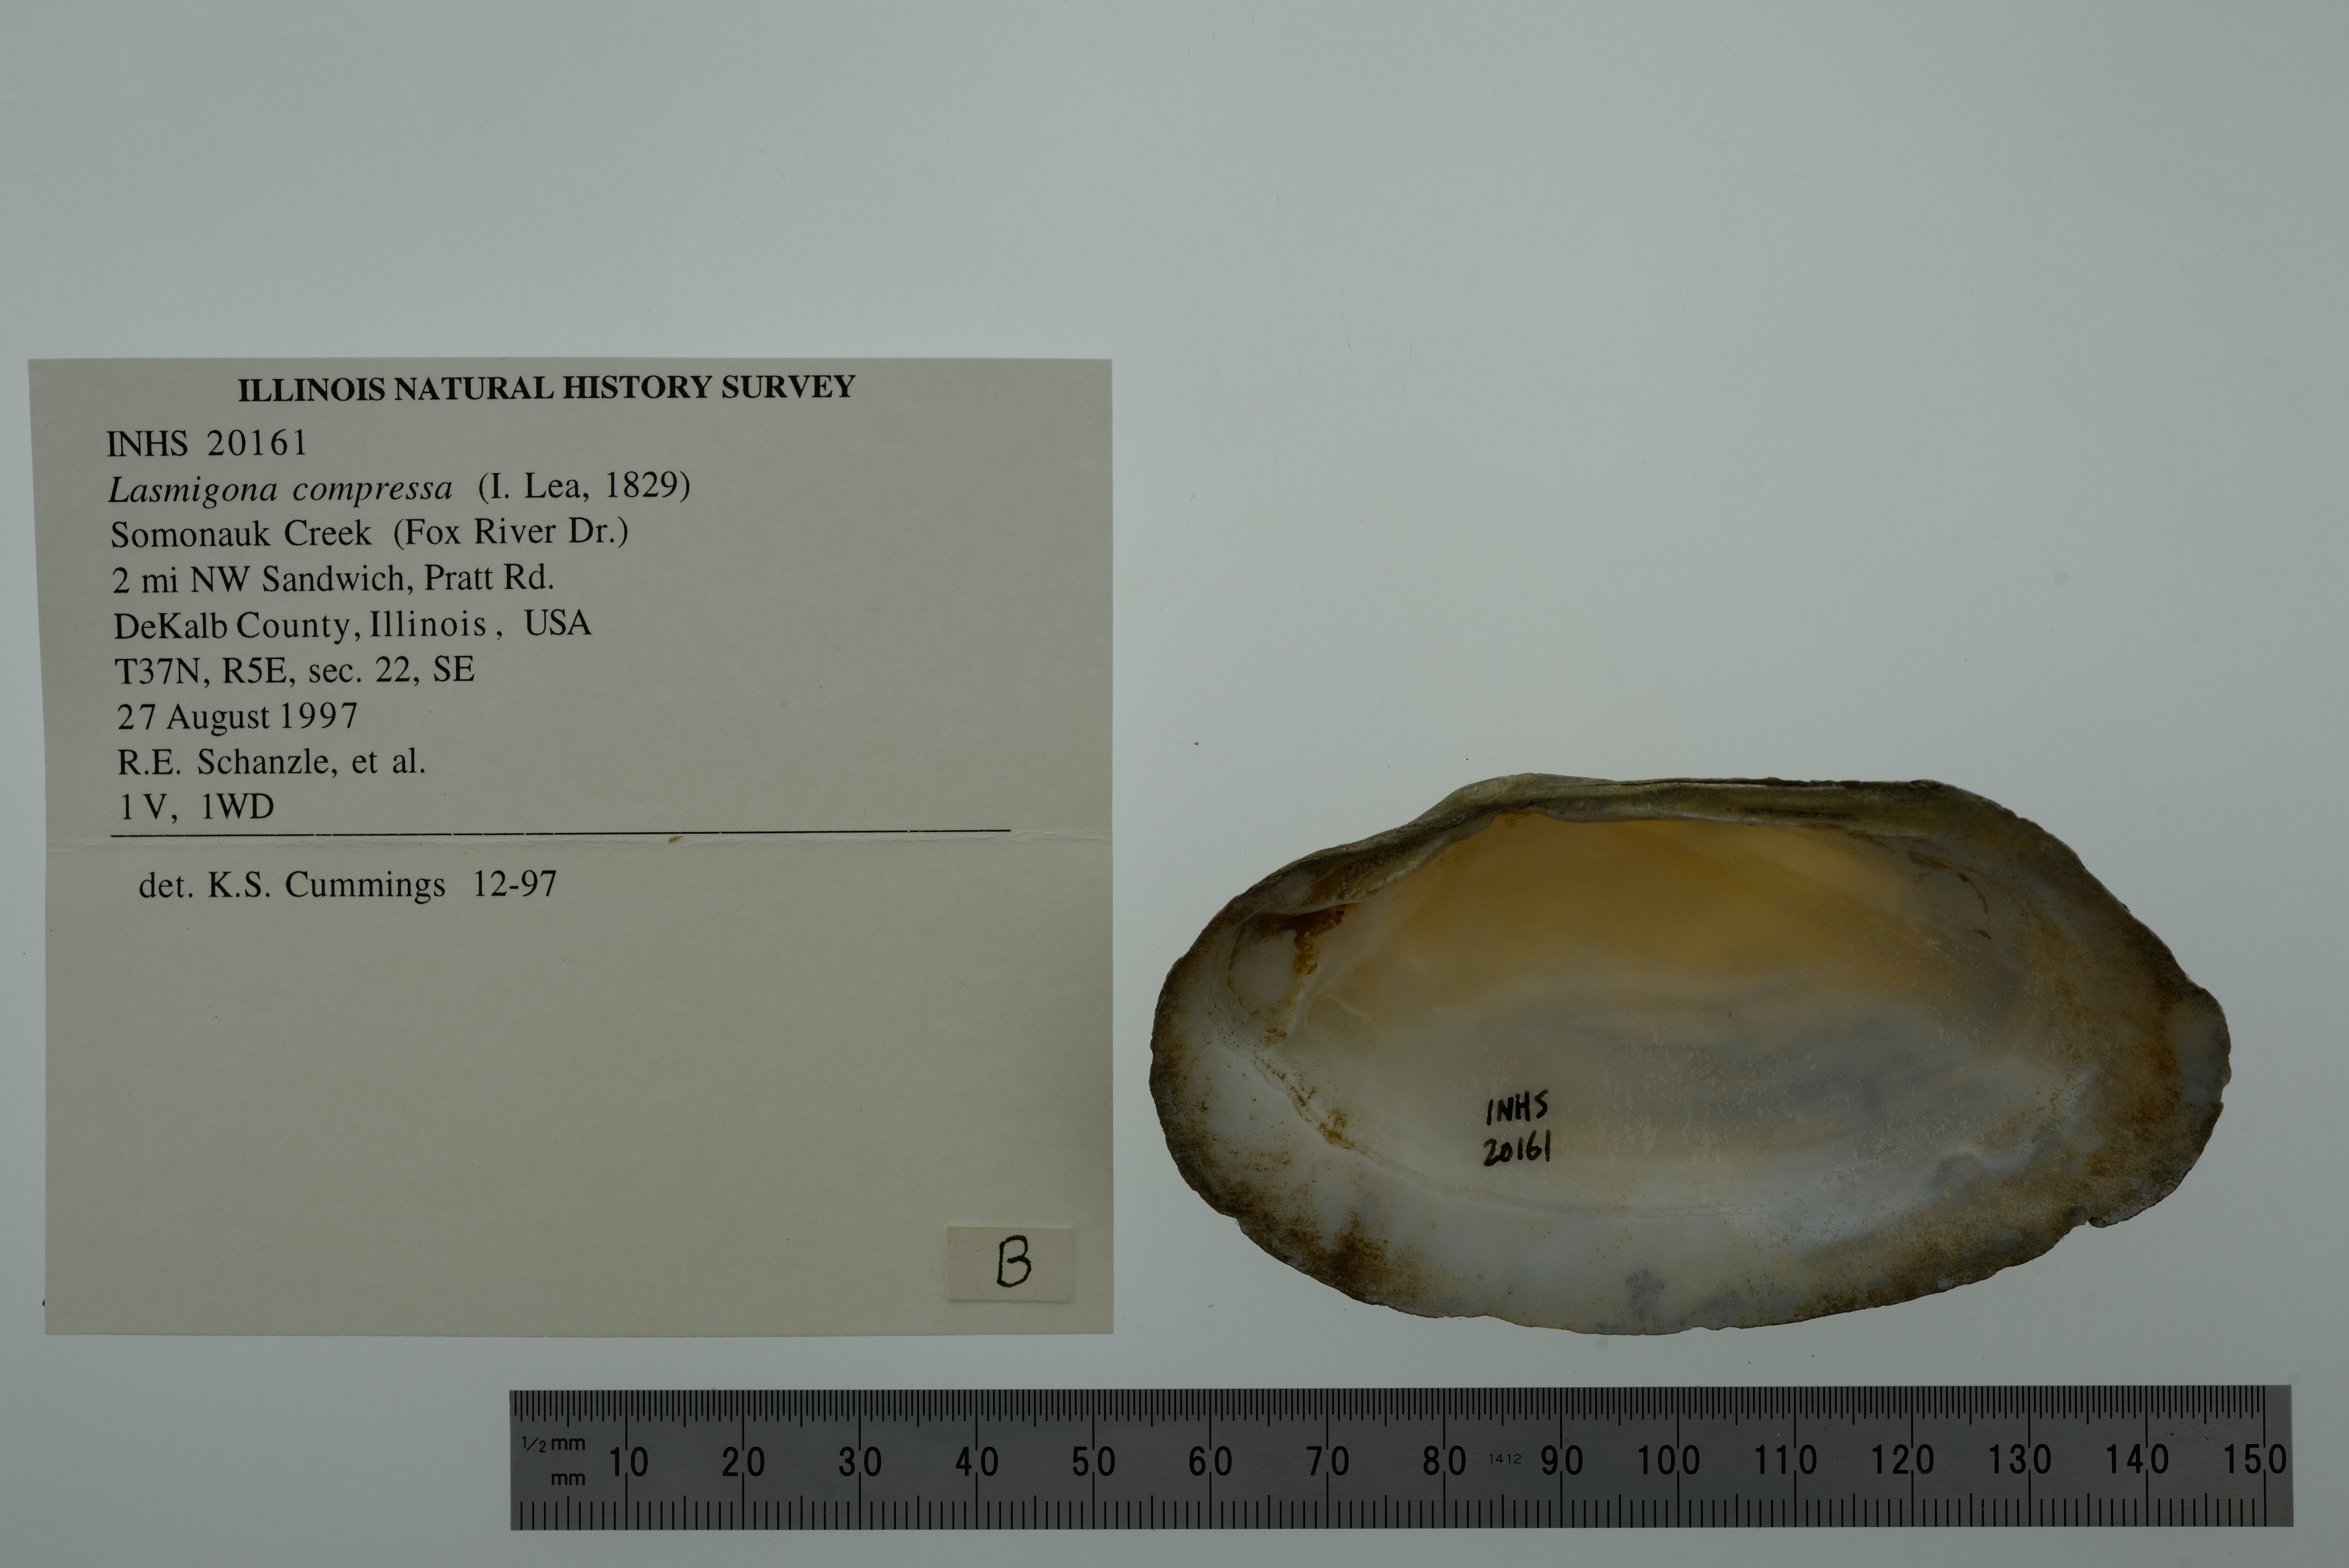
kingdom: Animalia
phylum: Mollusca
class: Bivalvia
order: Unionida
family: Unionidae
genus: Lasmigona
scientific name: Lasmigona compressa
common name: Creek heelsplitter
